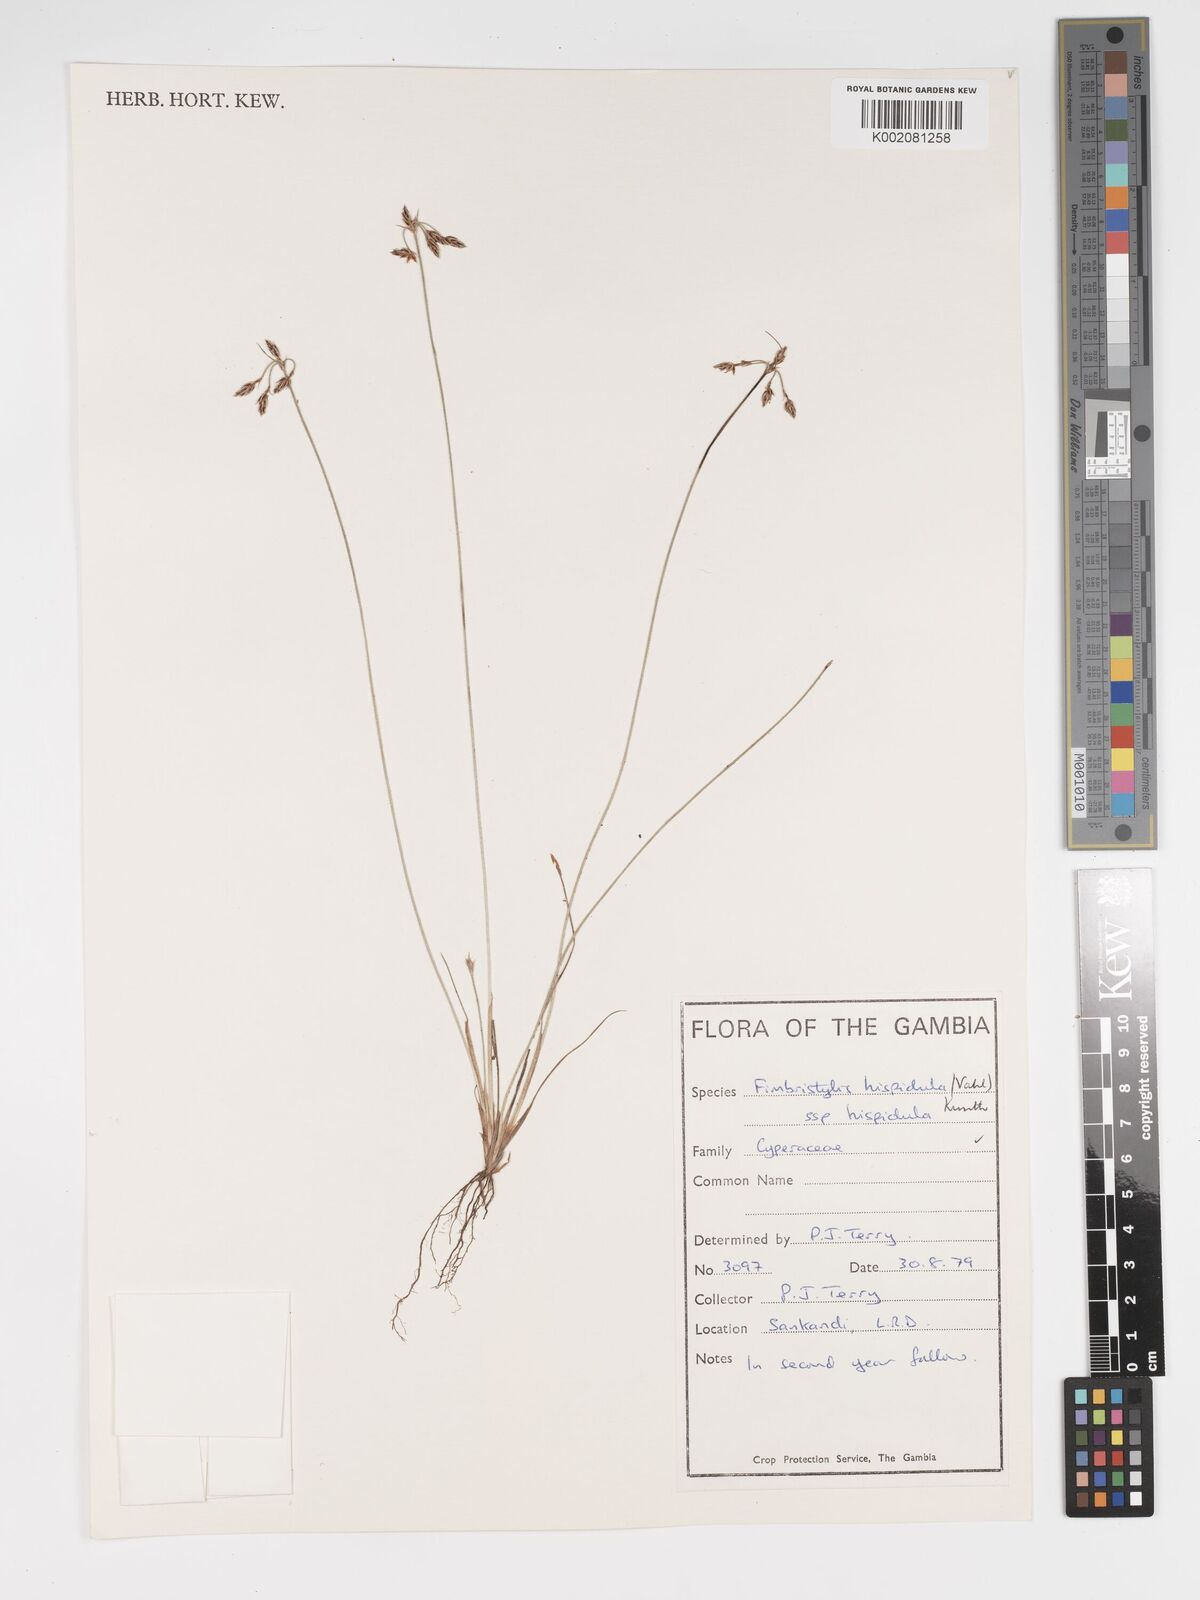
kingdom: Plantae
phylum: Tracheophyta
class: Liliopsida
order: Poales
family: Cyperaceae
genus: Bulbostylis
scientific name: Bulbostylis hispidula
